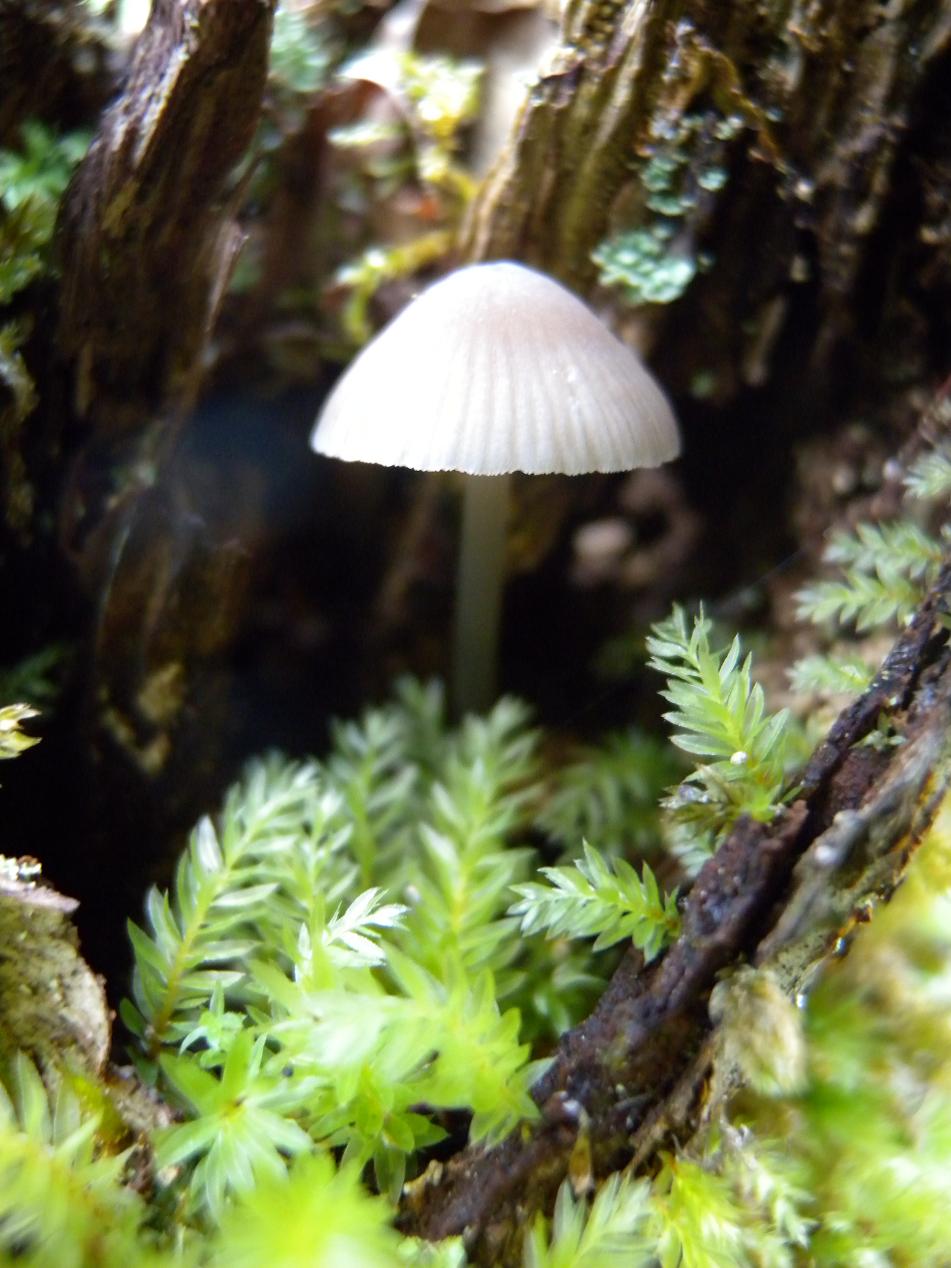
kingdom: Fungi
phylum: Basidiomycota
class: Agaricomycetes
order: Agaricales
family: Mycenaceae
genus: Mycena
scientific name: Mycena abramsii
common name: sommer-huesvamp
